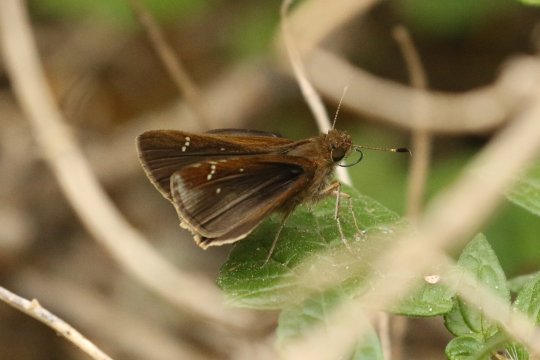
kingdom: Animalia
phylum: Arthropoda
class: Insecta
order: Lepidoptera
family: Hesperiidae
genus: Lerema
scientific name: Lerema accius
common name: Clouded Skipper
